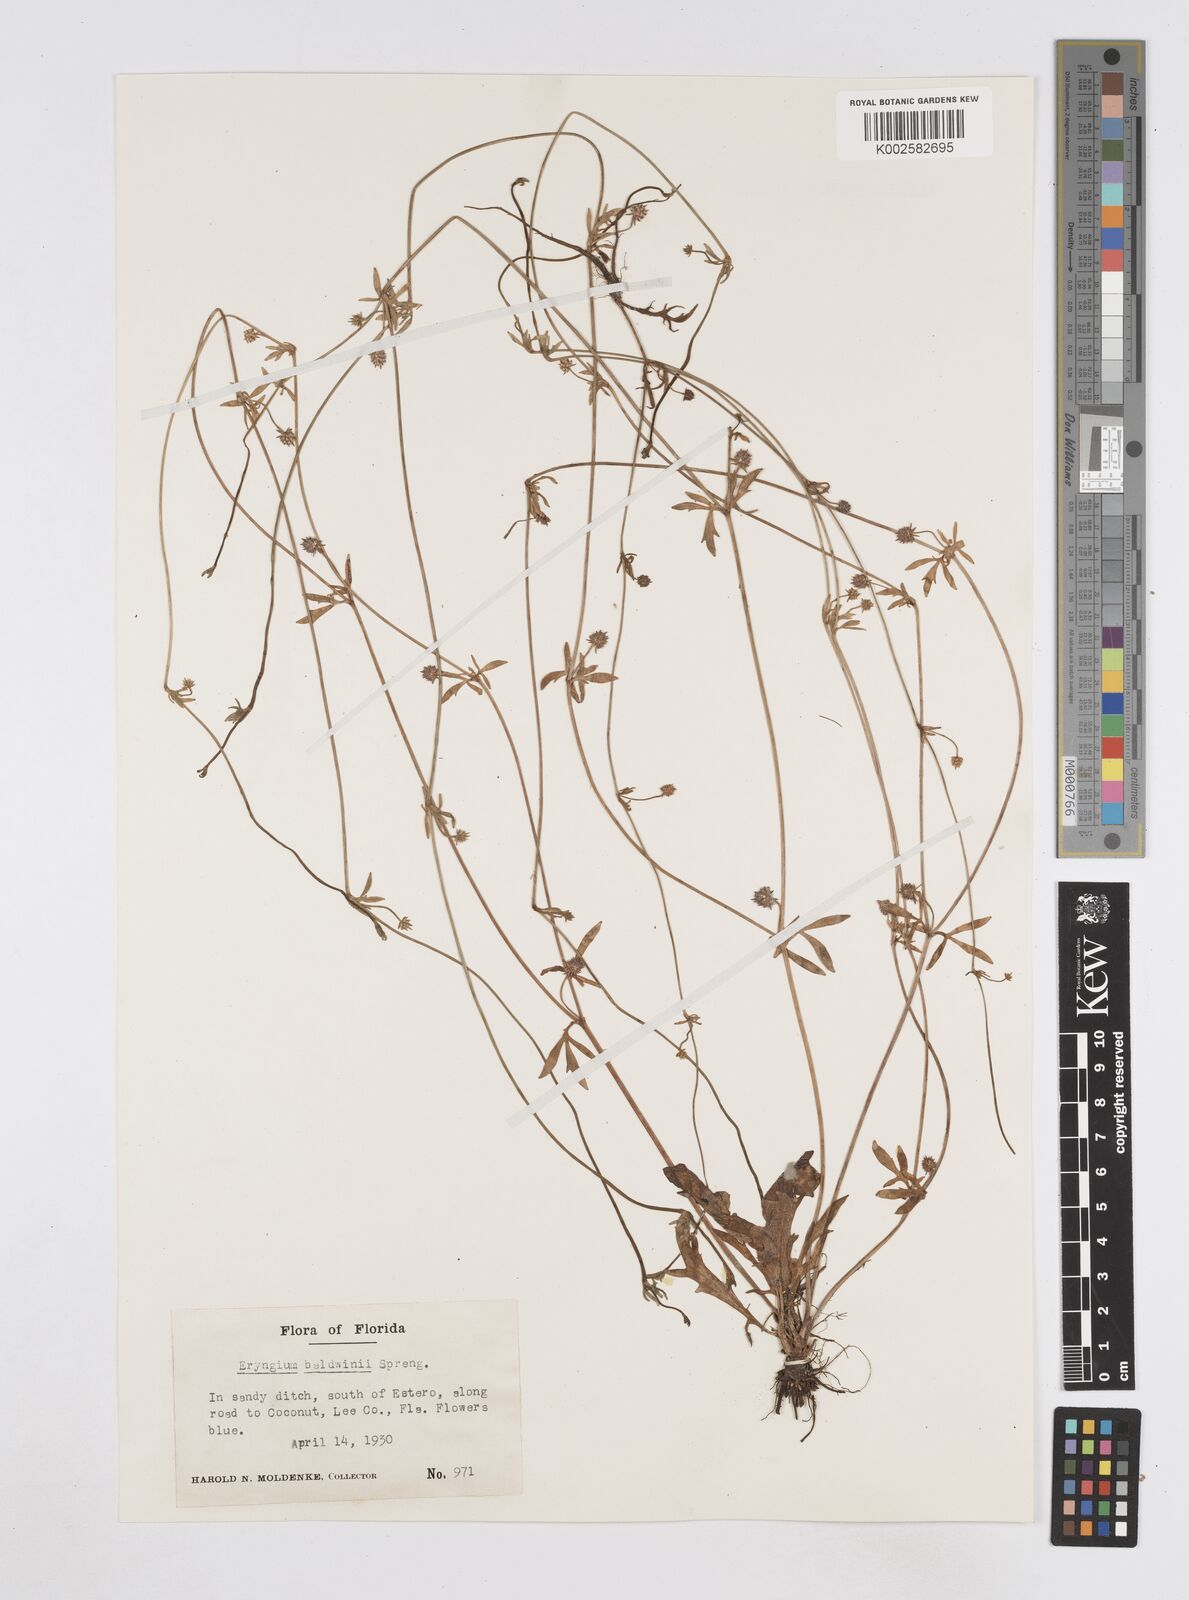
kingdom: Plantae
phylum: Tracheophyta
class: Magnoliopsida
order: Apiales
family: Apiaceae
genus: Eryngium
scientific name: Eryngium baldwinii
